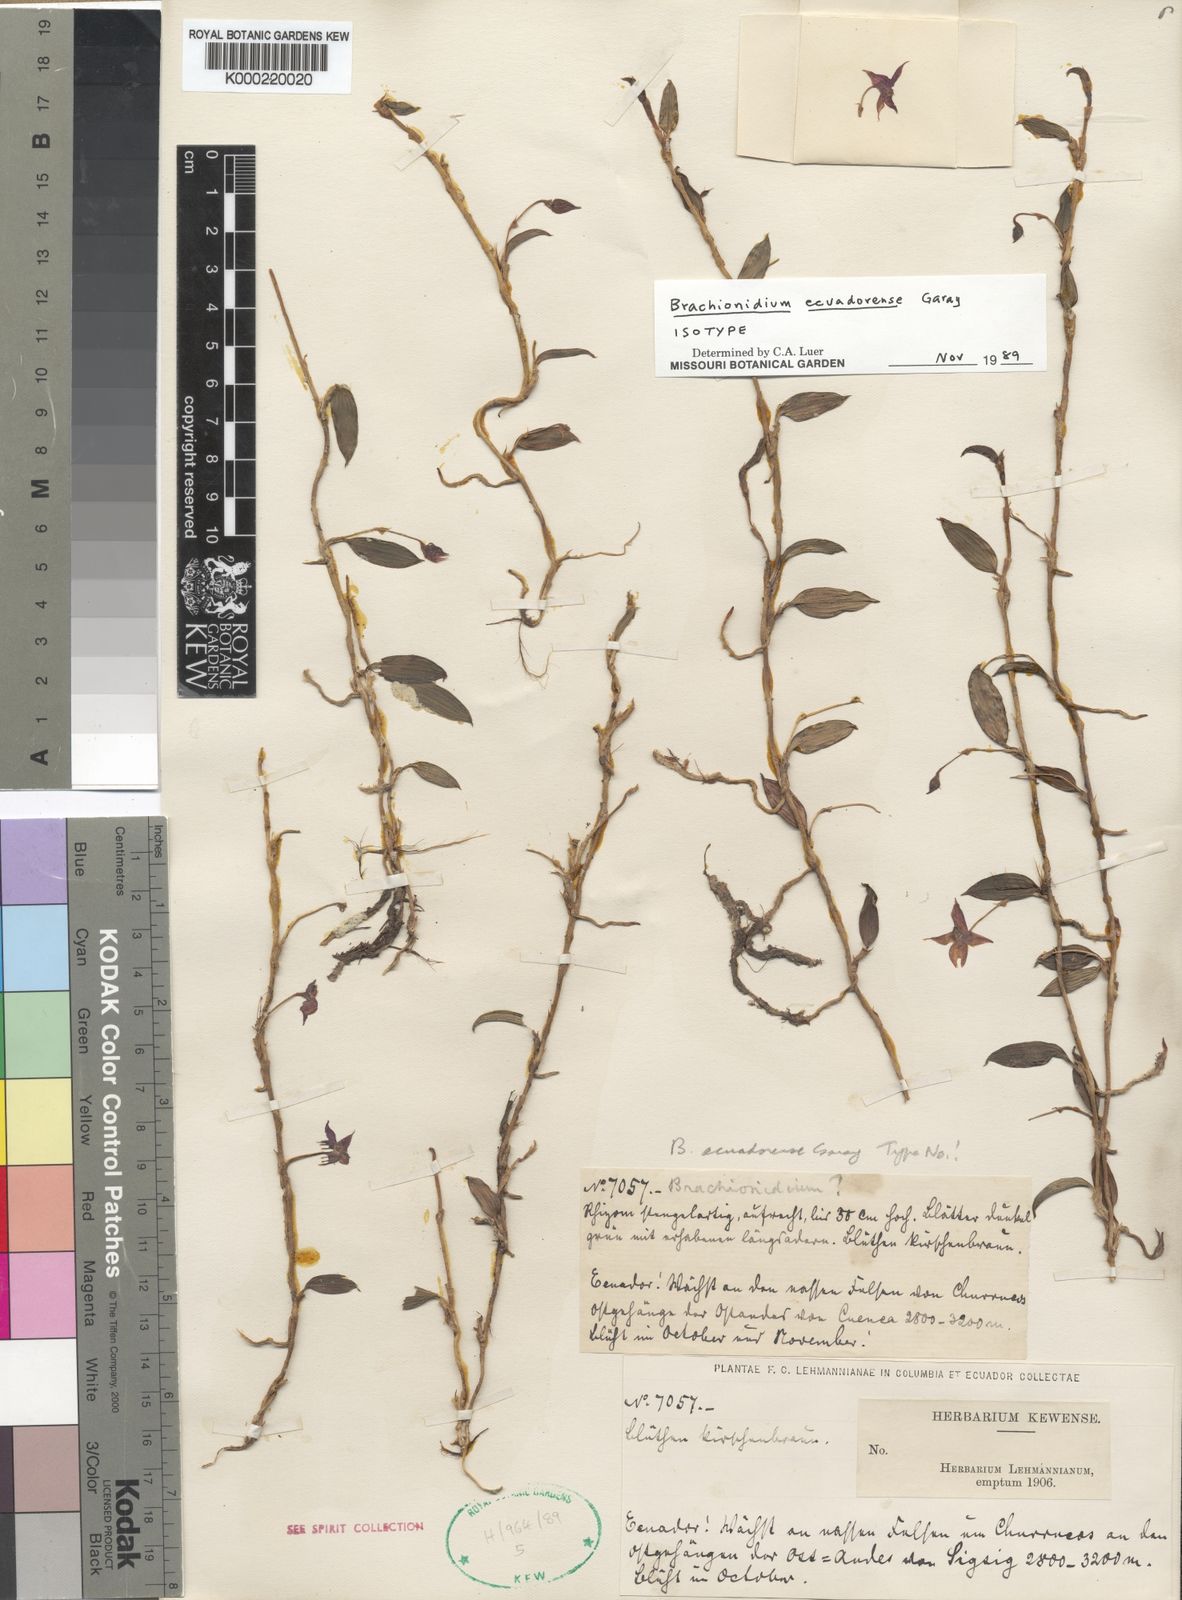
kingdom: Plantae
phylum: Tracheophyta
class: Liliopsida
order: Asparagales
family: Orchidaceae
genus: Brachionidium
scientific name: Brachionidium ecuadorense
